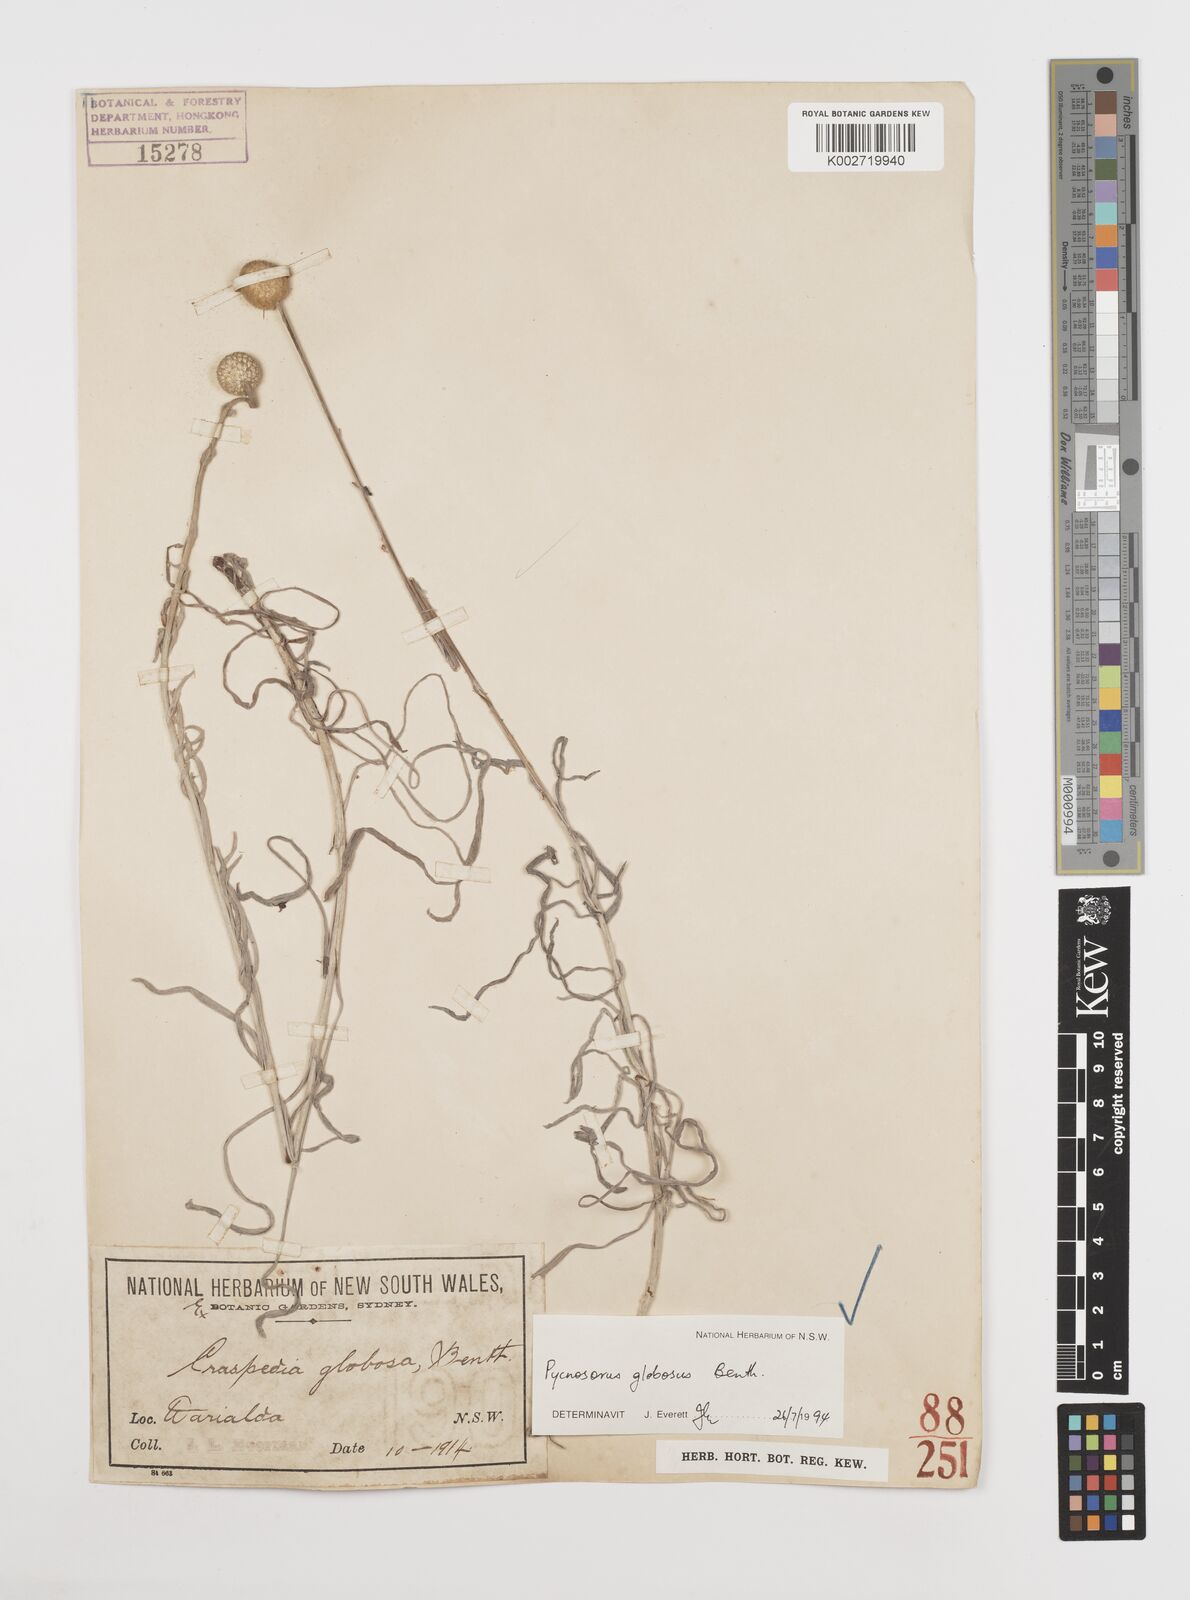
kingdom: Plantae
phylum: Tracheophyta
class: Magnoliopsida
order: Asterales
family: Asteraceae
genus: Pycnosorus
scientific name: Pycnosorus globosus
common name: Drumsticks
